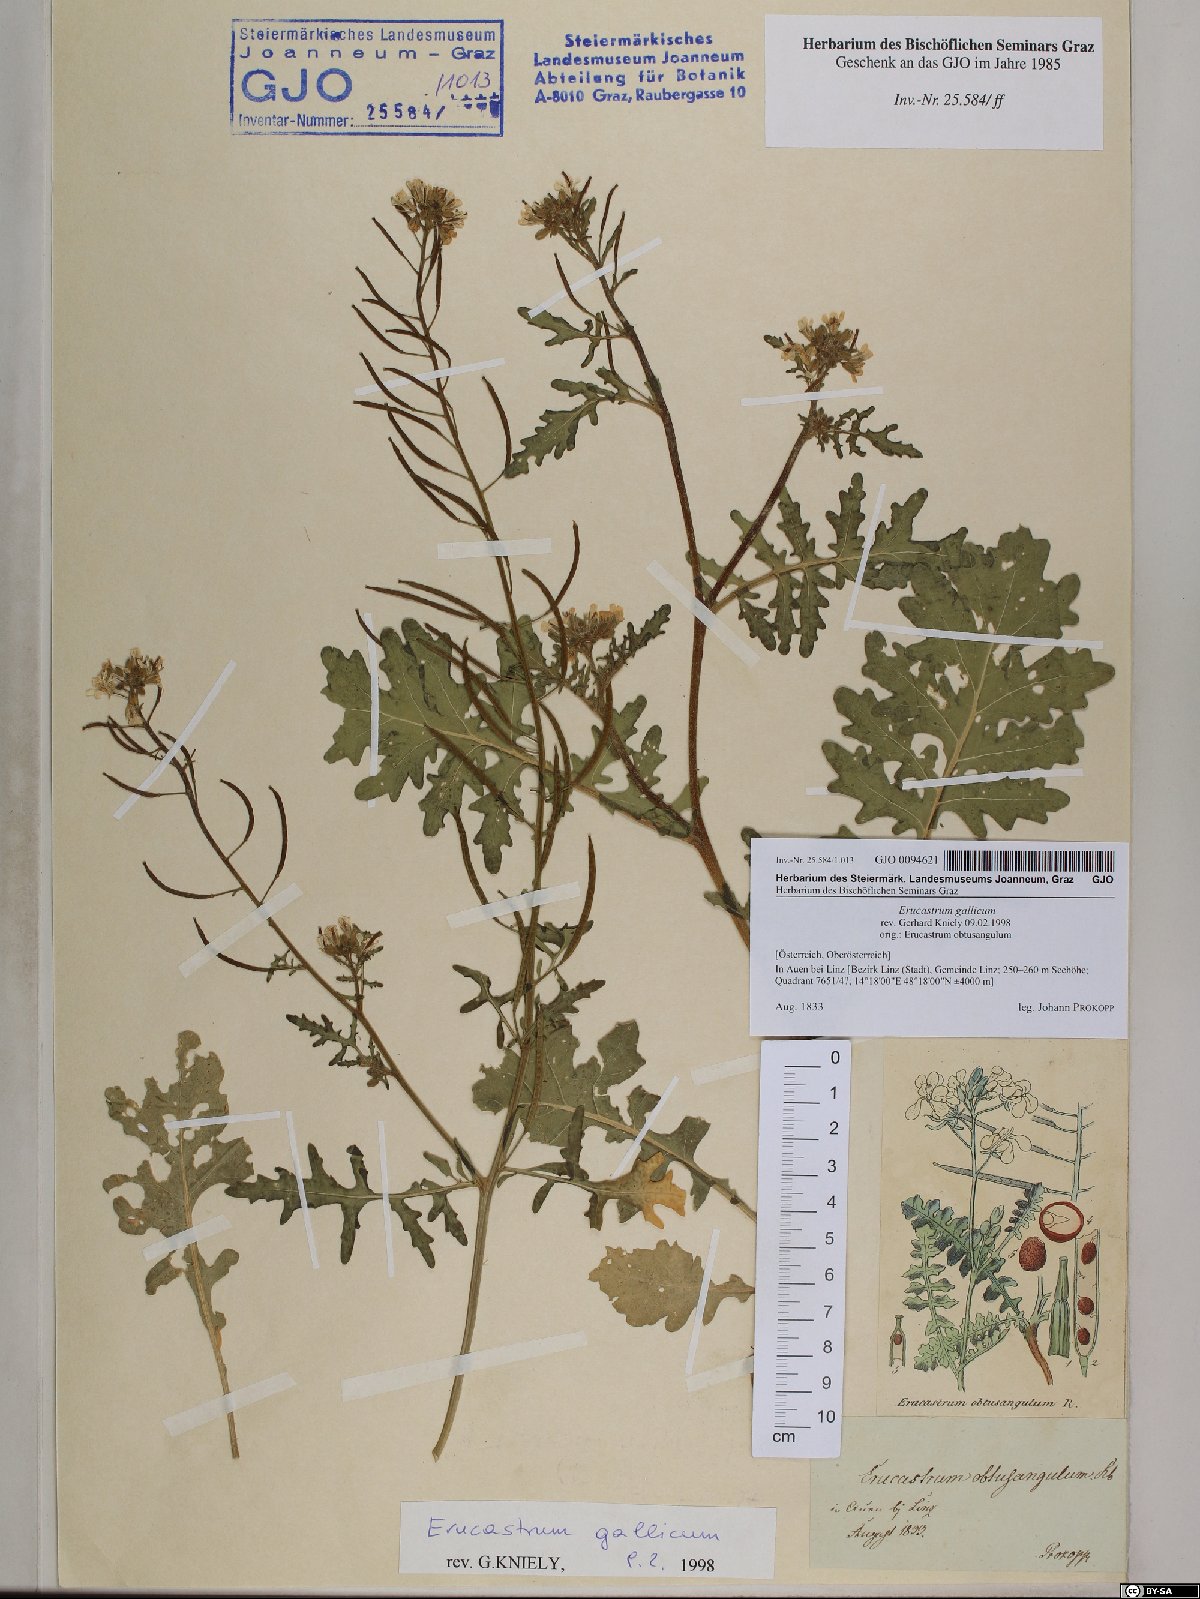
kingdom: Plantae
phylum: Tracheophyta
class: Magnoliopsida
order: Brassicales
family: Brassicaceae
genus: Erucastrum
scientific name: Erucastrum gallicum
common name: Hairy rocket
